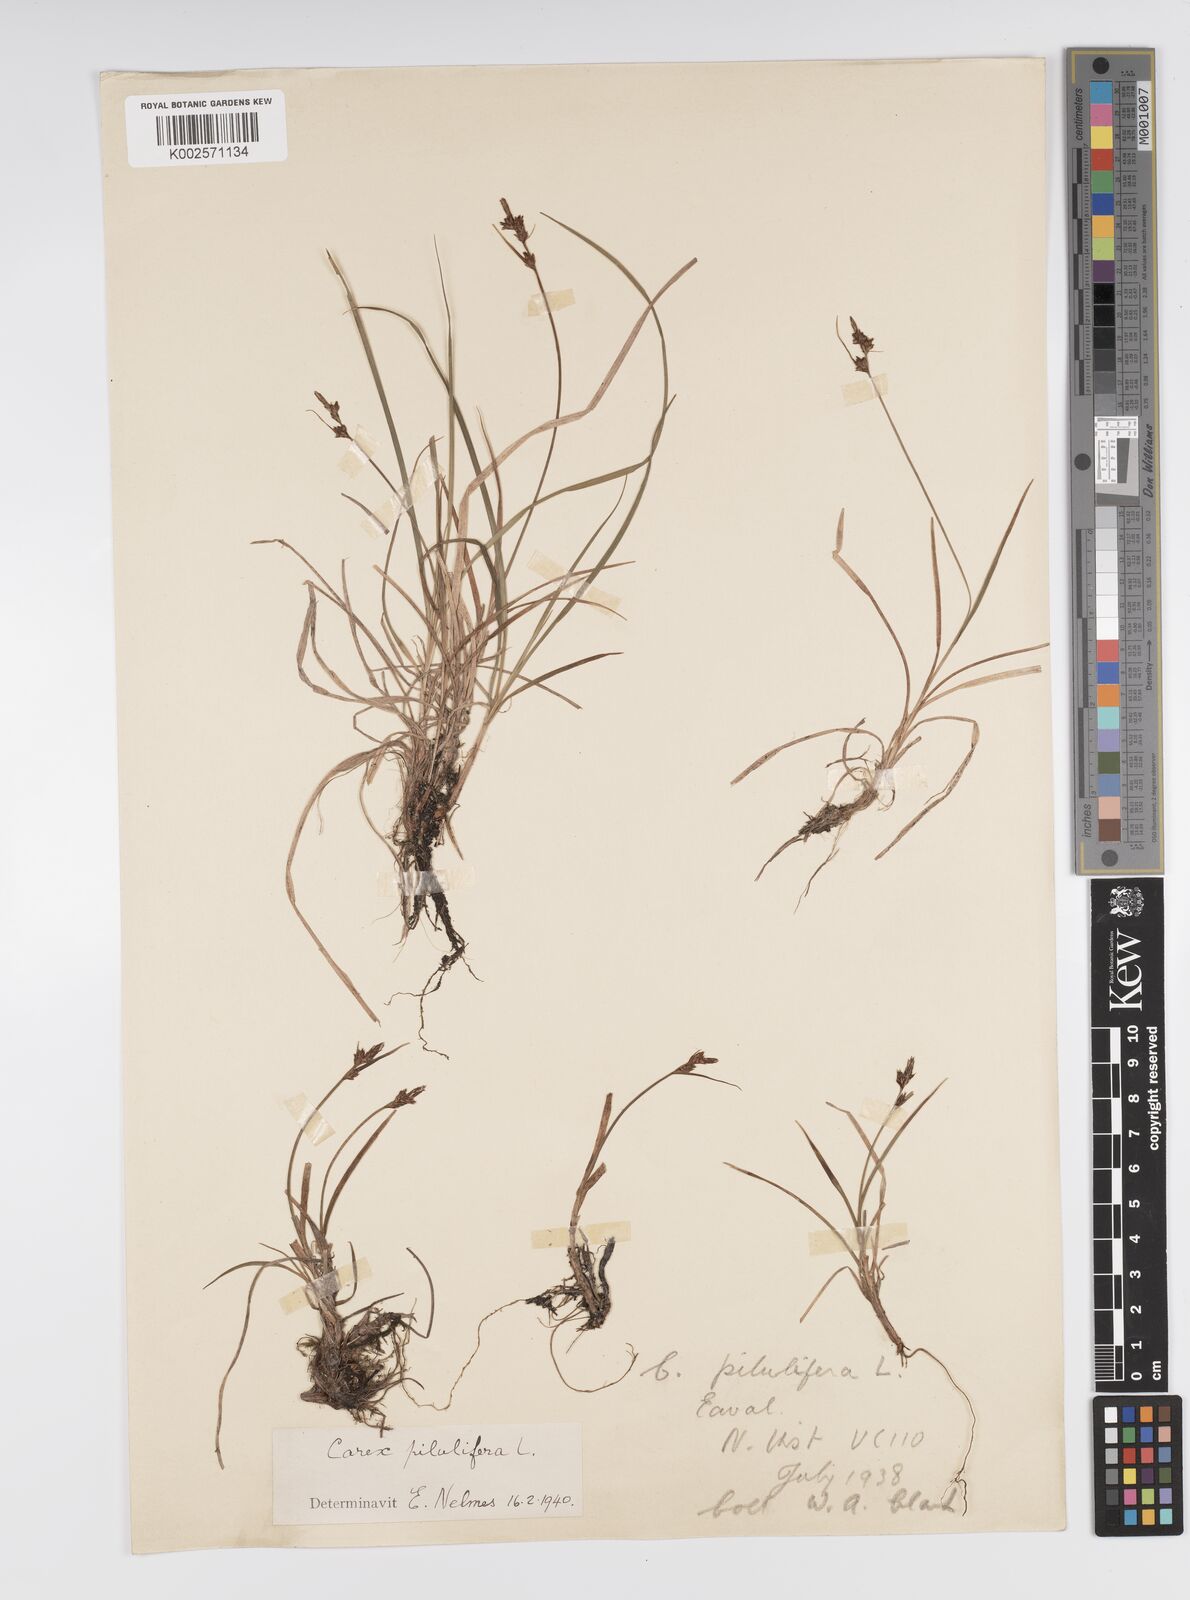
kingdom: Plantae
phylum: Tracheophyta
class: Liliopsida
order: Poales
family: Cyperaceae
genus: Carex
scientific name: Carex pilulifera
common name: Pill sedge
